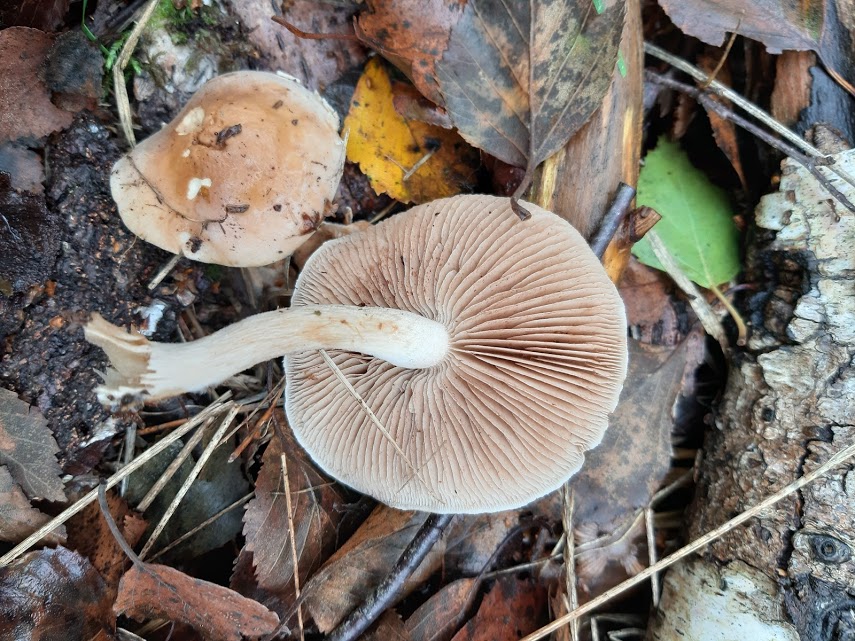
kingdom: Fungi
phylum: Basidiomycota
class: Agaricomycetes
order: Agaricales
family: Hymenogastraceae
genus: Hebeloma
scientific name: Hebeloma
